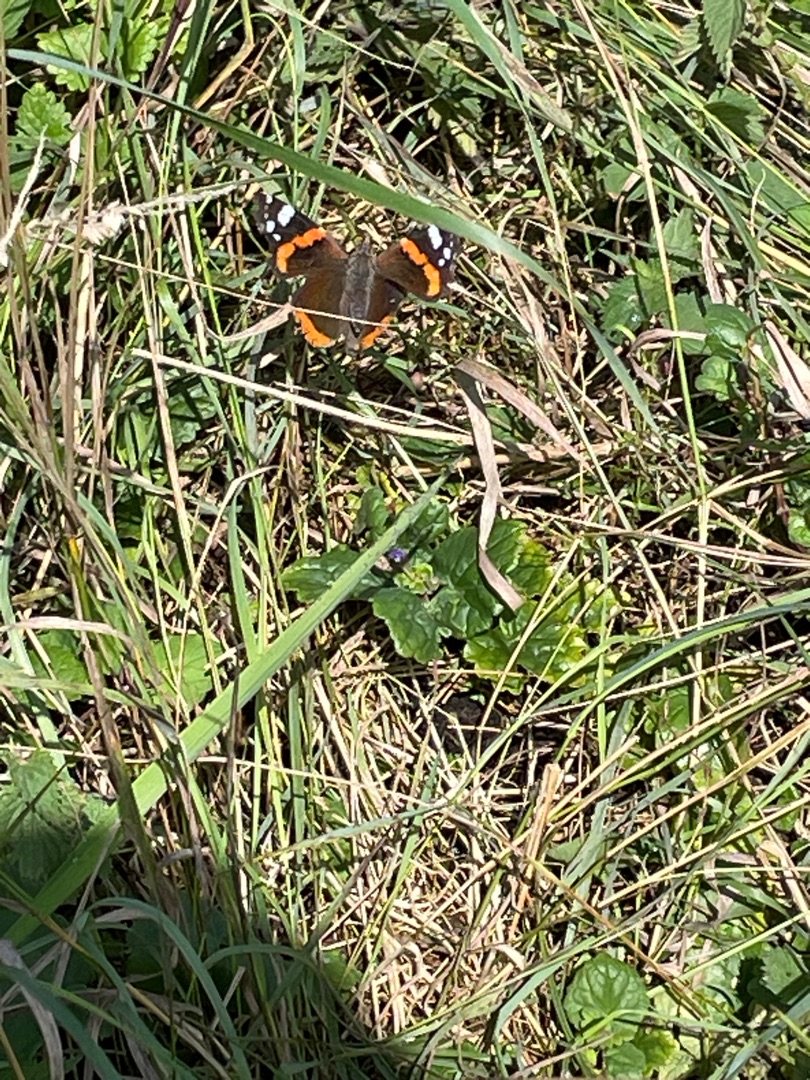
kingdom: Animalia
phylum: Arthropoda
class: Insecta
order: Lepidoptera
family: Nymphalidae
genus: Vanessa
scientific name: Vanessa atalanta
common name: Admiral
